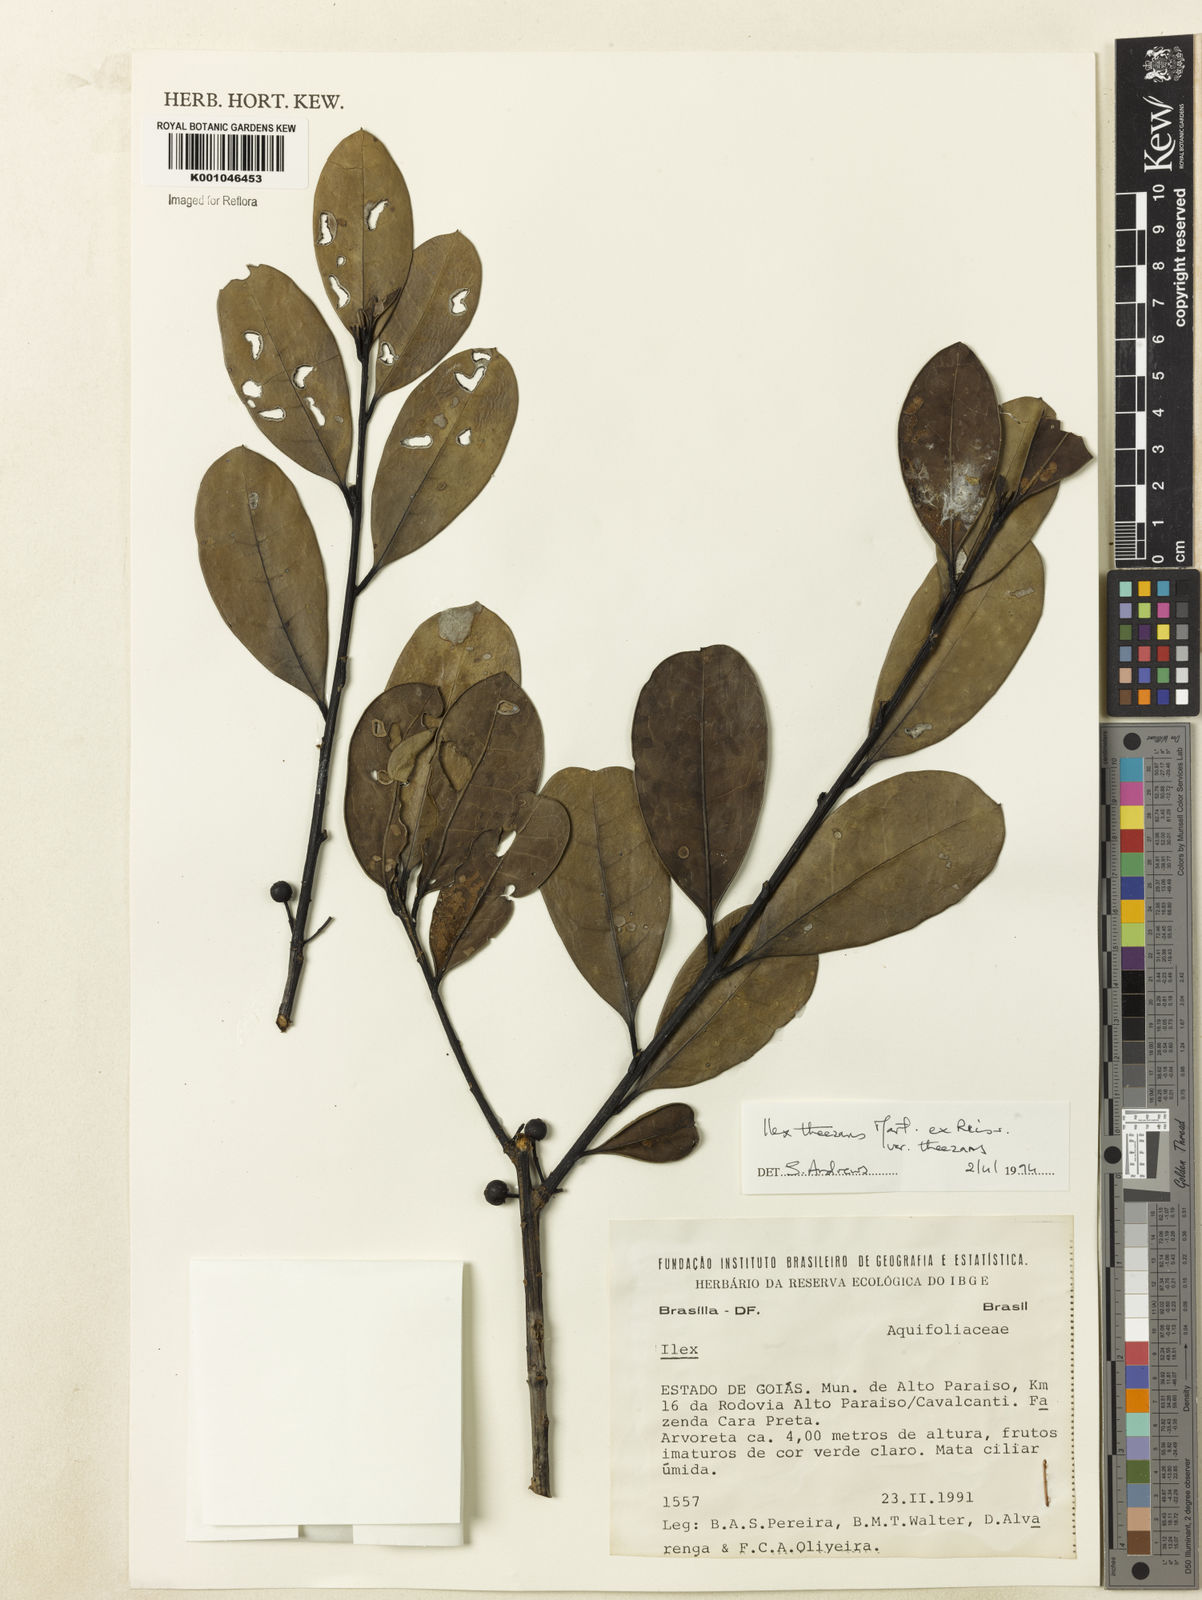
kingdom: Plantae
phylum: Tracheophyta
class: Magnoliopsida
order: Aquifoliales
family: Aquifoliaceae
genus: Ilex
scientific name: Ilex paraguariensis
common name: Paraguay tea
